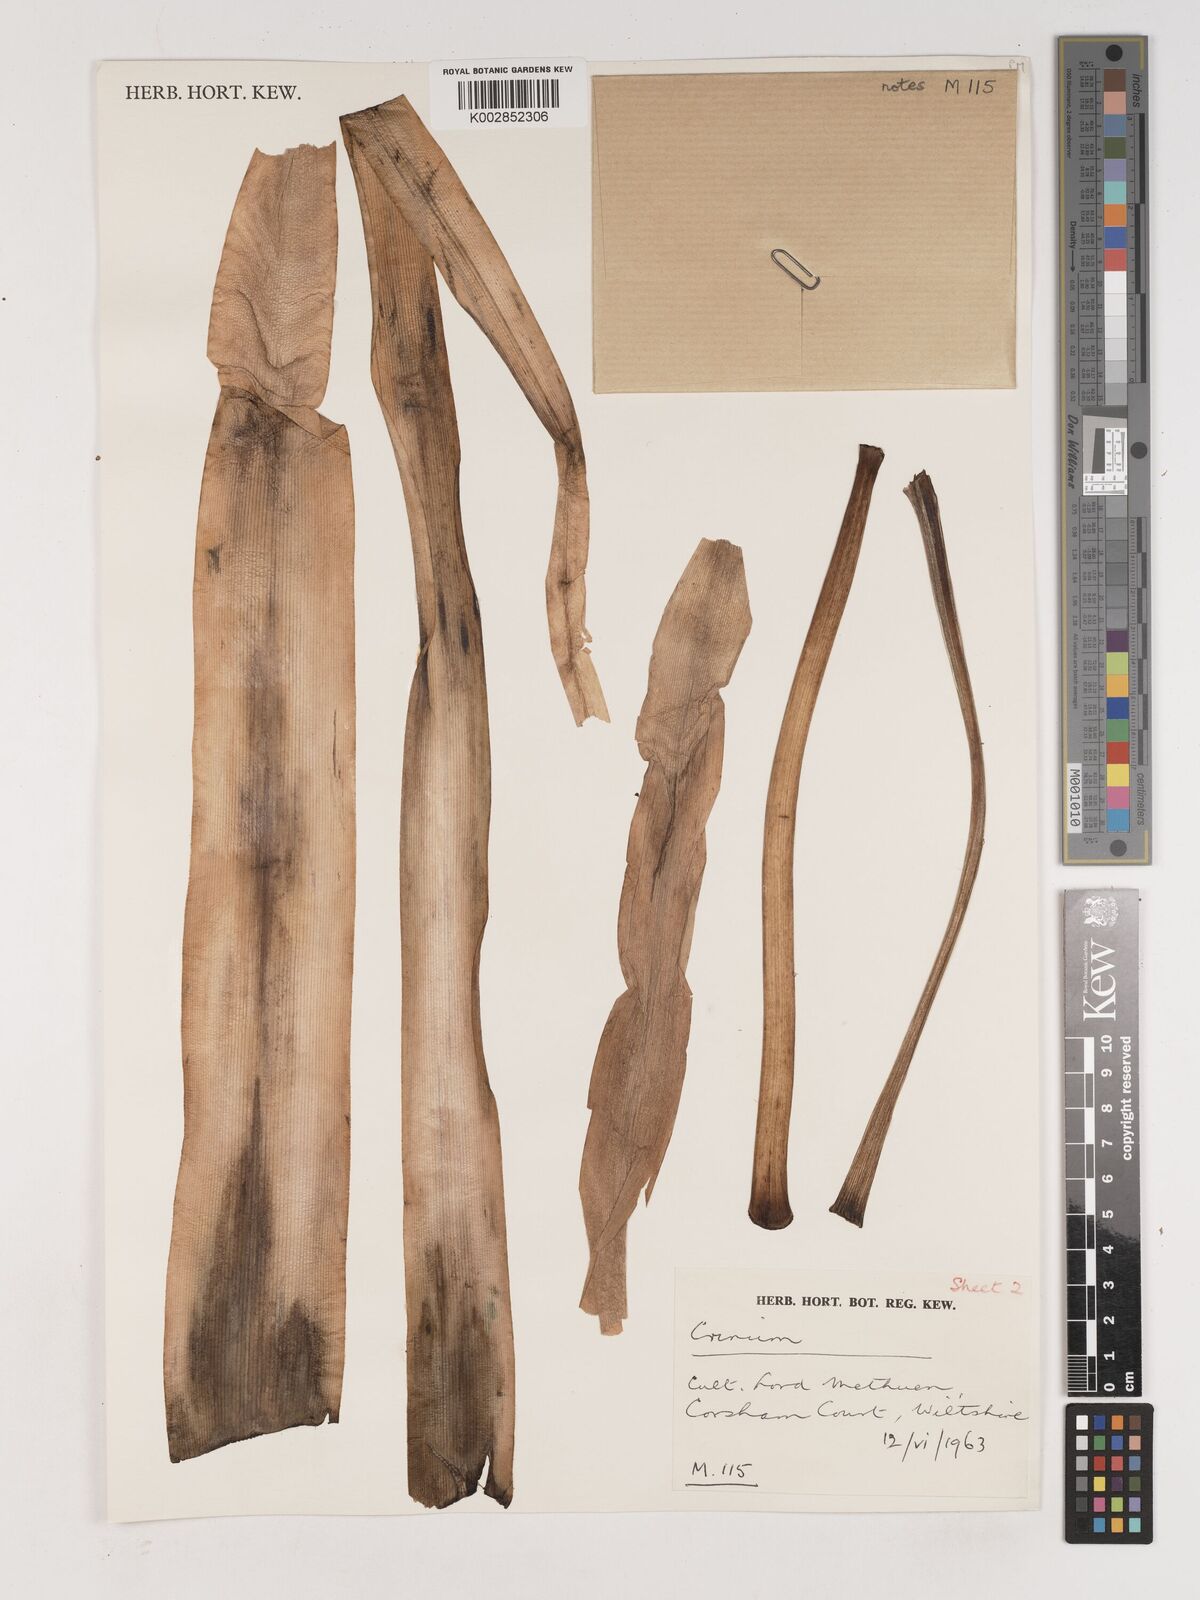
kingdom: Plantae
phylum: Tracheophyta
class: Liliopsida
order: Asparagales
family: Amaryllidaceae
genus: Crinum
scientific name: Crinum
